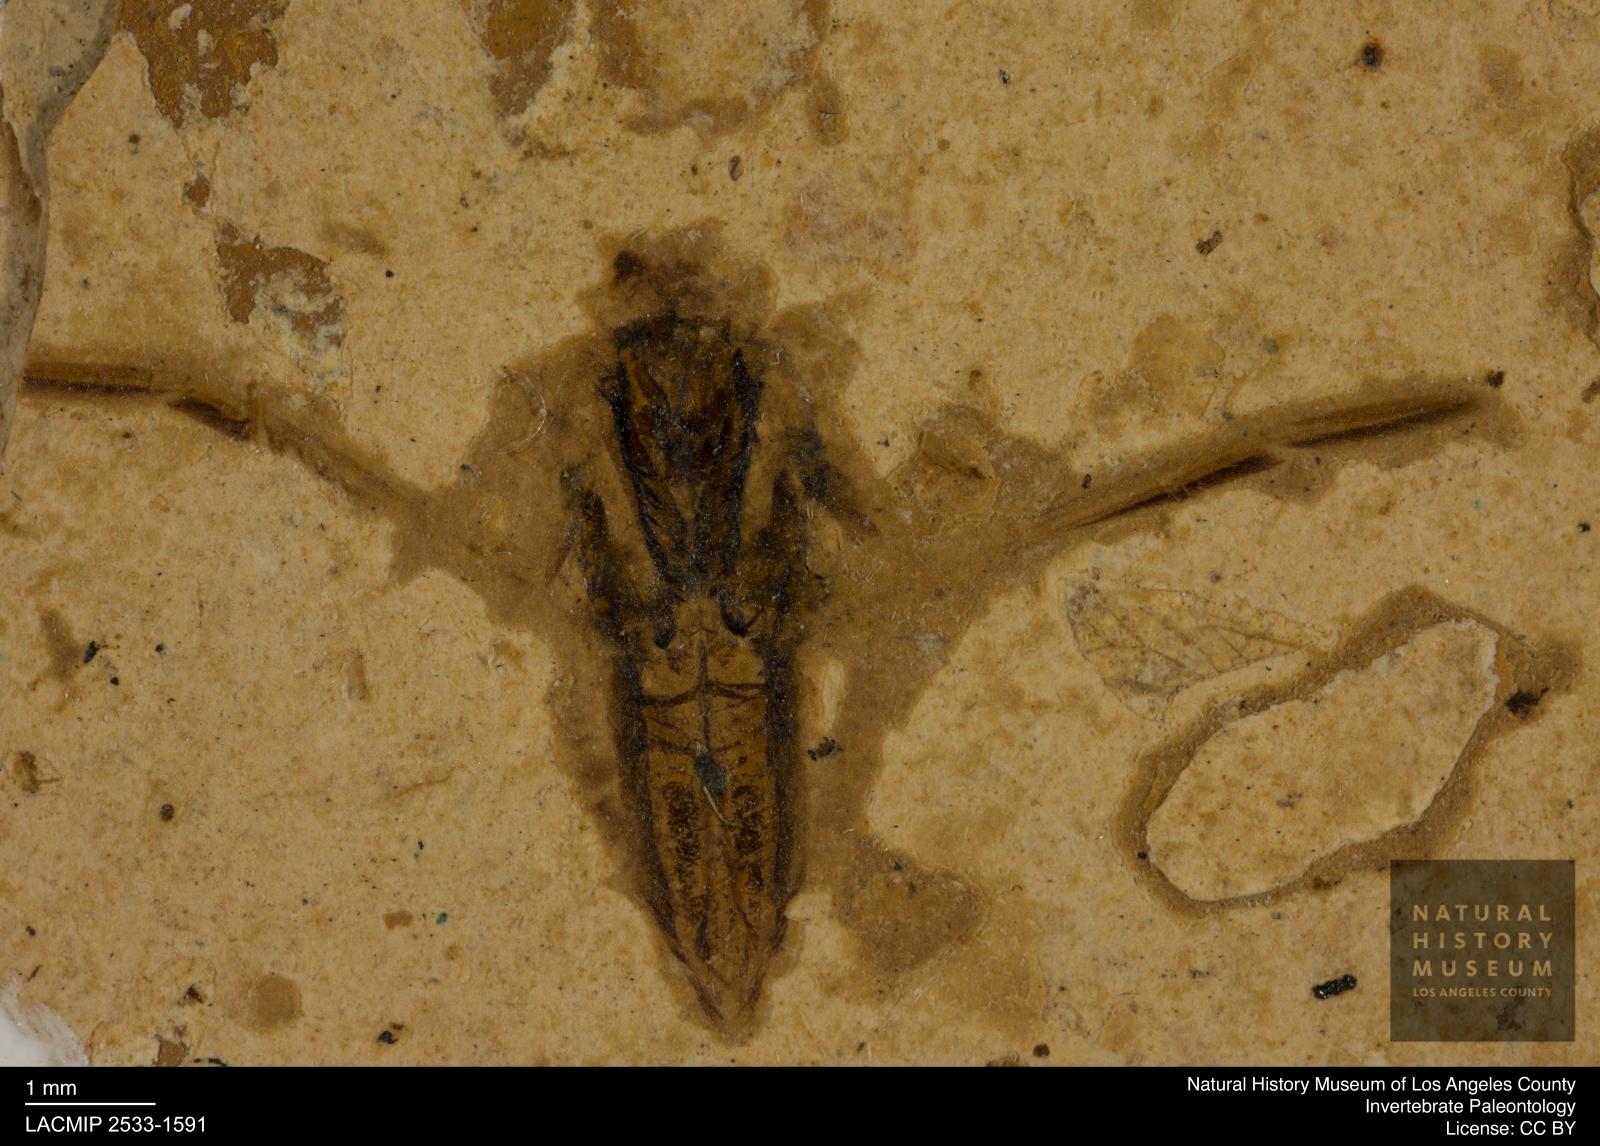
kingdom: Animalia
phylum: Arthropoda
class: Insecta
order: Hemiptera
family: Notonectidae
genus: Notonecta
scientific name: Notonecta
